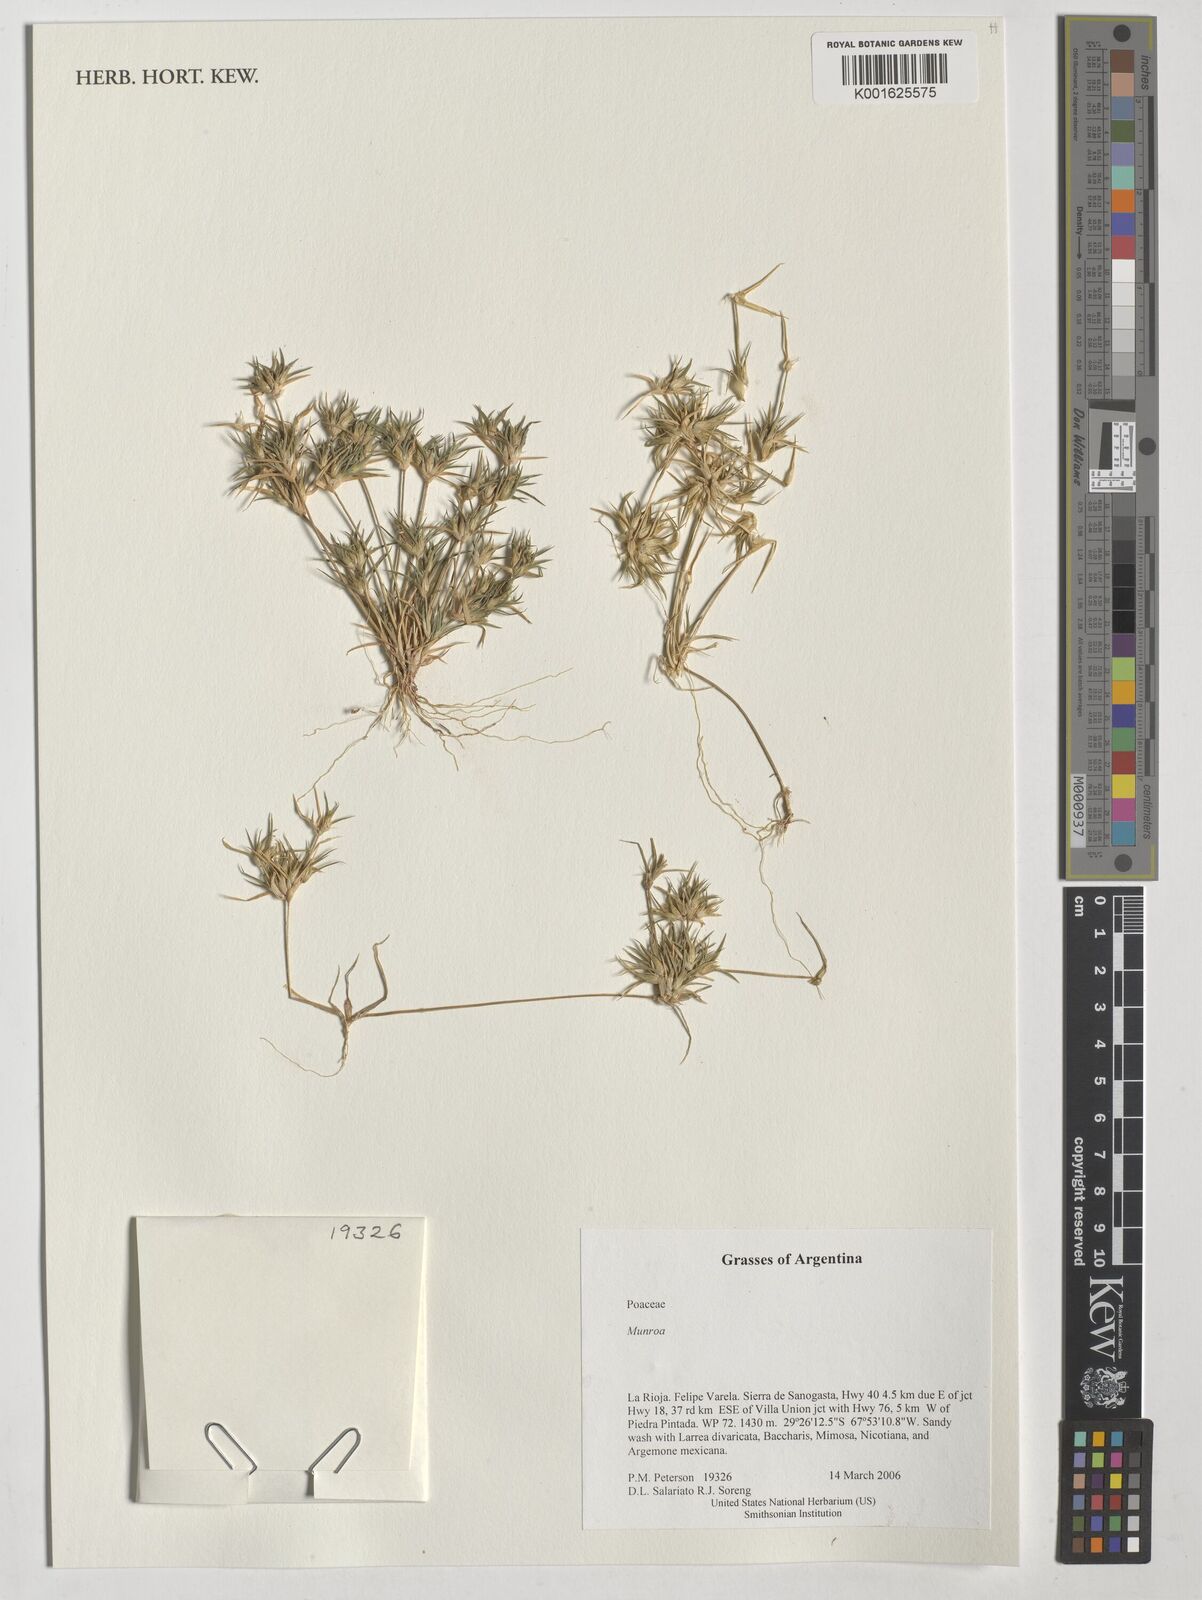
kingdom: Plantae
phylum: Tracheophyta
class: Liliopsida
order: Poales
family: Poaceae
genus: Munroa
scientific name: Munroa
